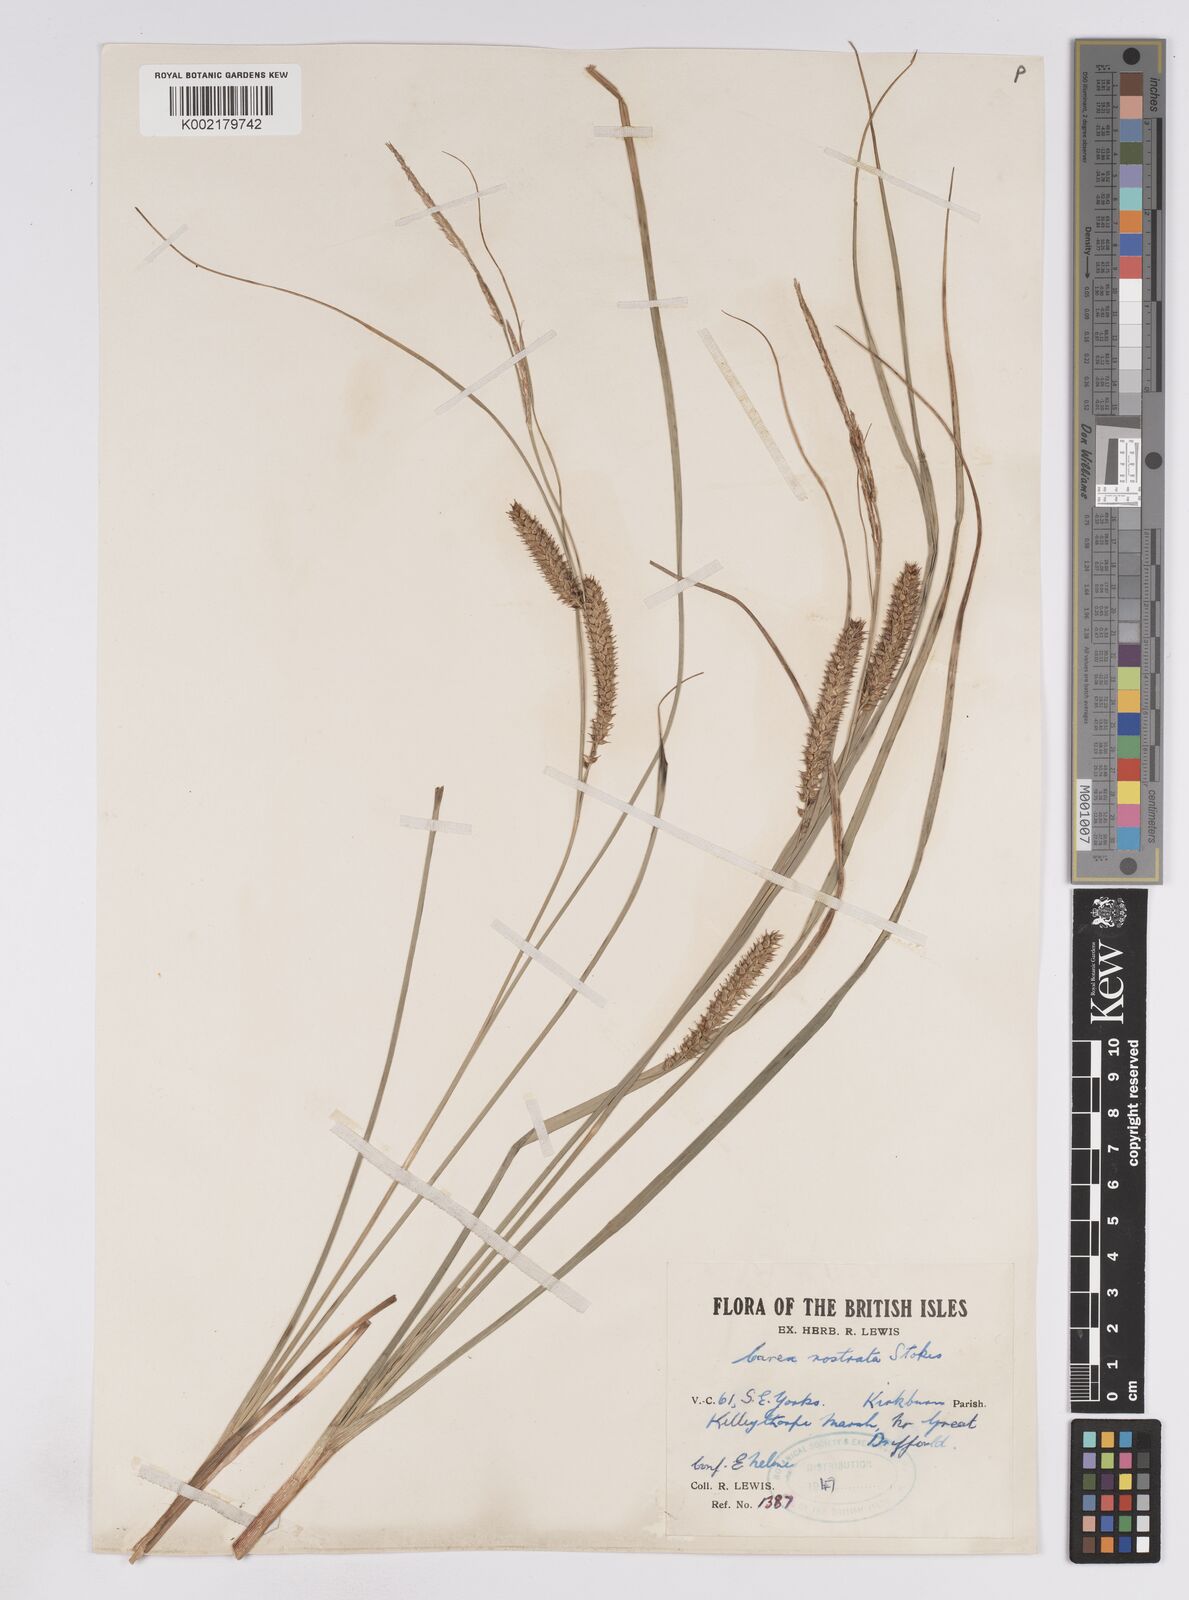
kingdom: Plantae
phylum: Tracheophyta
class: Liliopsida
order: Poales
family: Cyperaceae
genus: Carex
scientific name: Carex rostrata
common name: Bottle sedge
